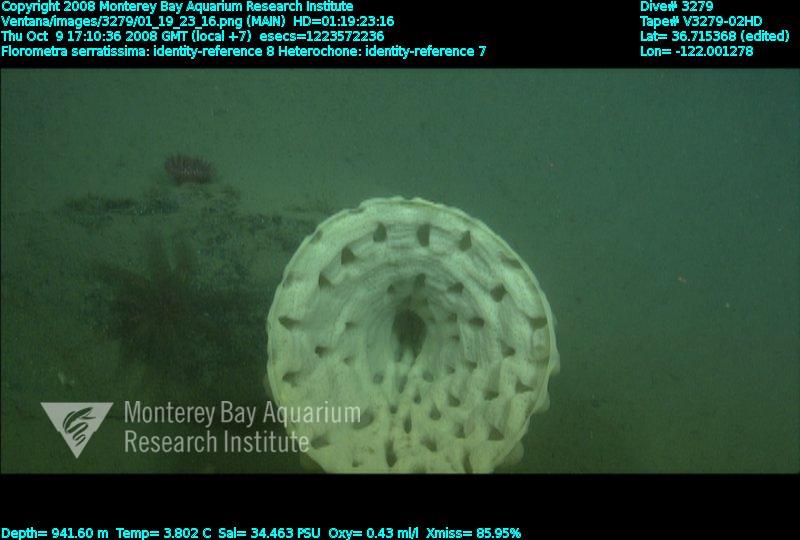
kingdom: Animalia
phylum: Porifera
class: Hexactinellida
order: Sceptrulophora
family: Aphrocallistidae
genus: Heterochone
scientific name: Heterochone
